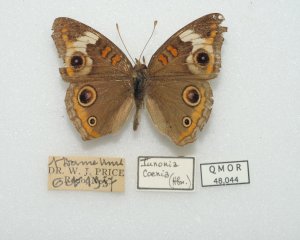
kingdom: Animalia
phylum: Arthropoda
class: Insecta
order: Lepidoptera
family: Nymphalidae
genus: Junonia
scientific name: Junonia coenia
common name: Common Buckeye
